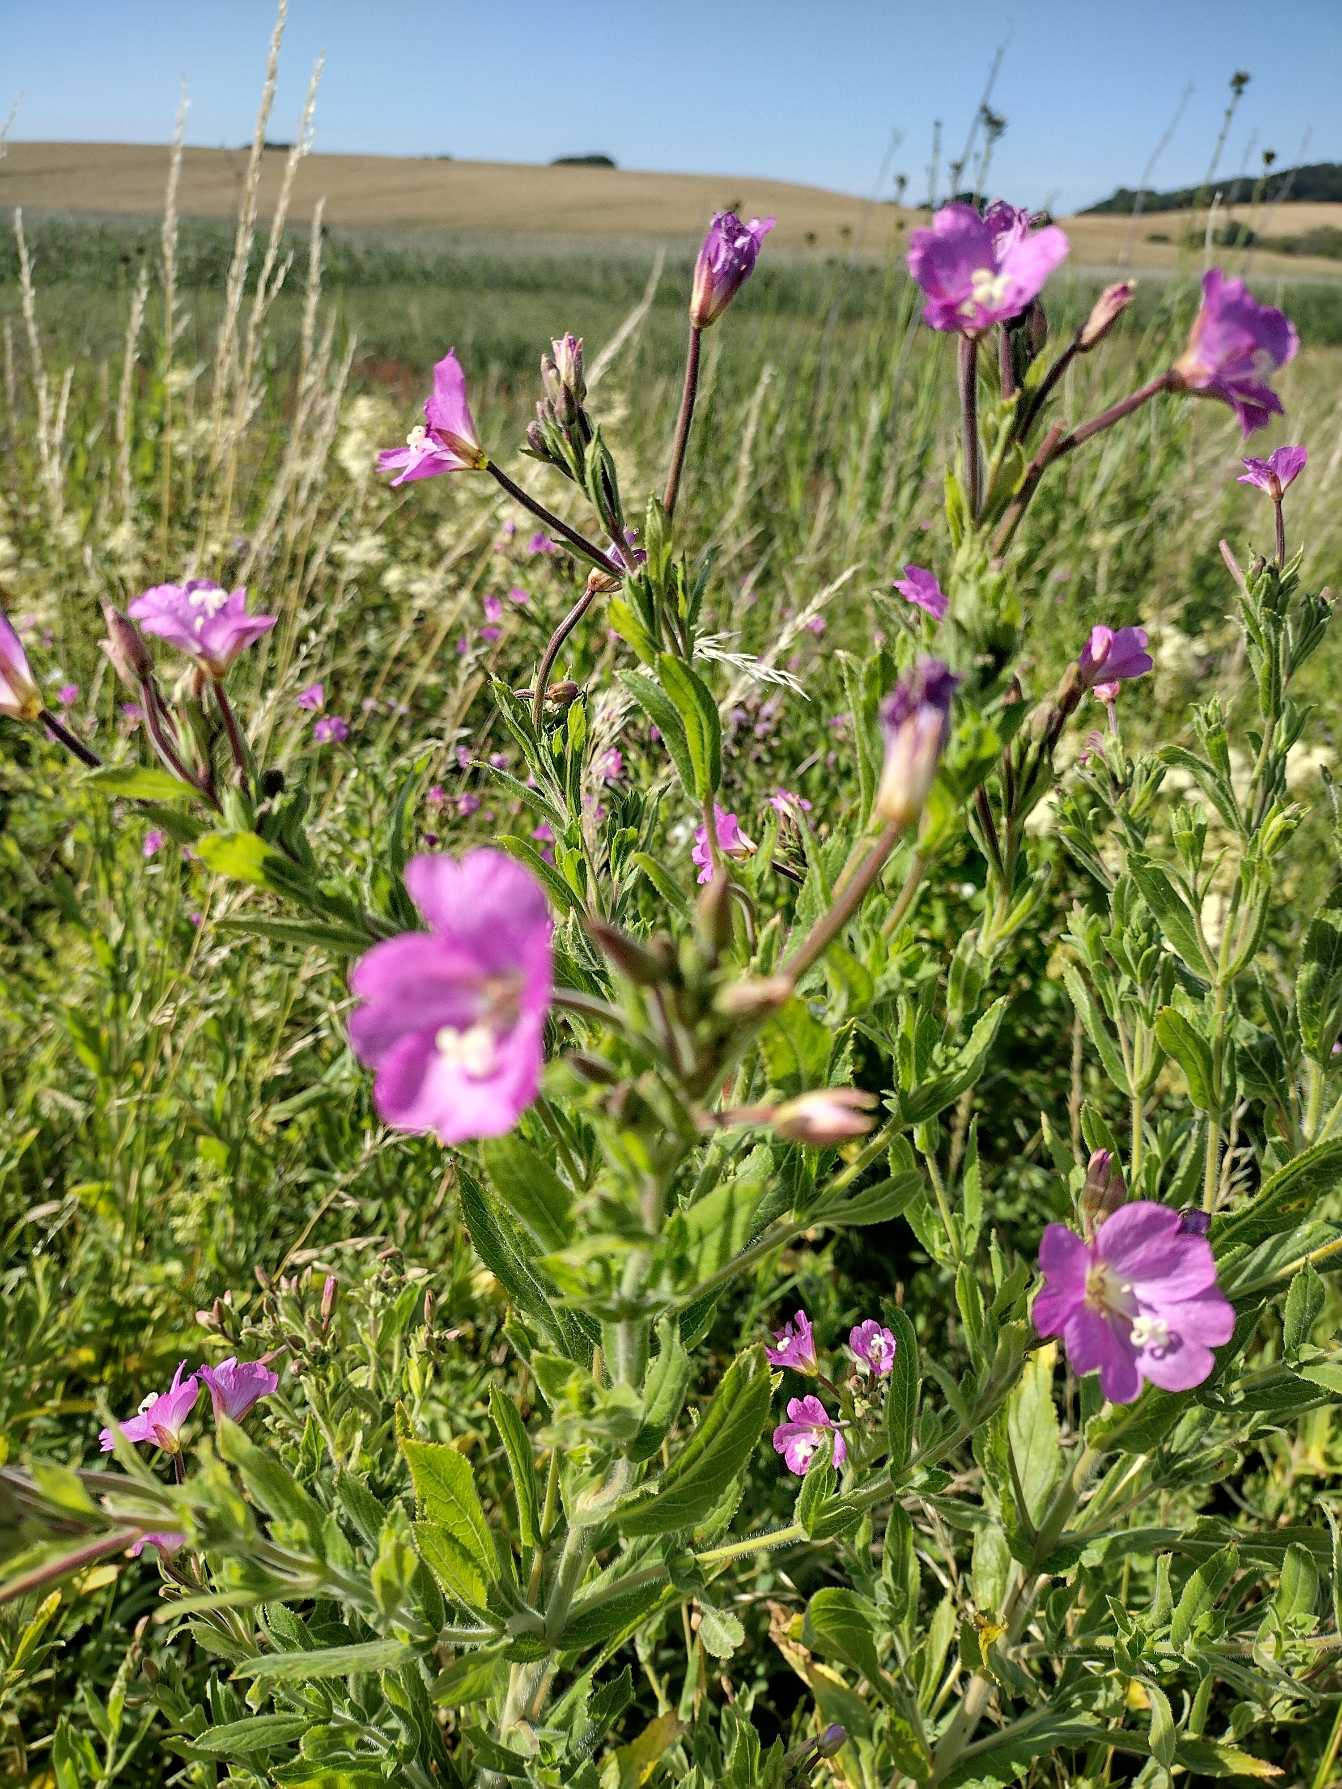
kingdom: Plantae
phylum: Tracheophyta
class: Magnoliopsida
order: Myrtales
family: Onagraceae
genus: Epilobium
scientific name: Epilobium hirsutum
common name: Lådden dueurt
